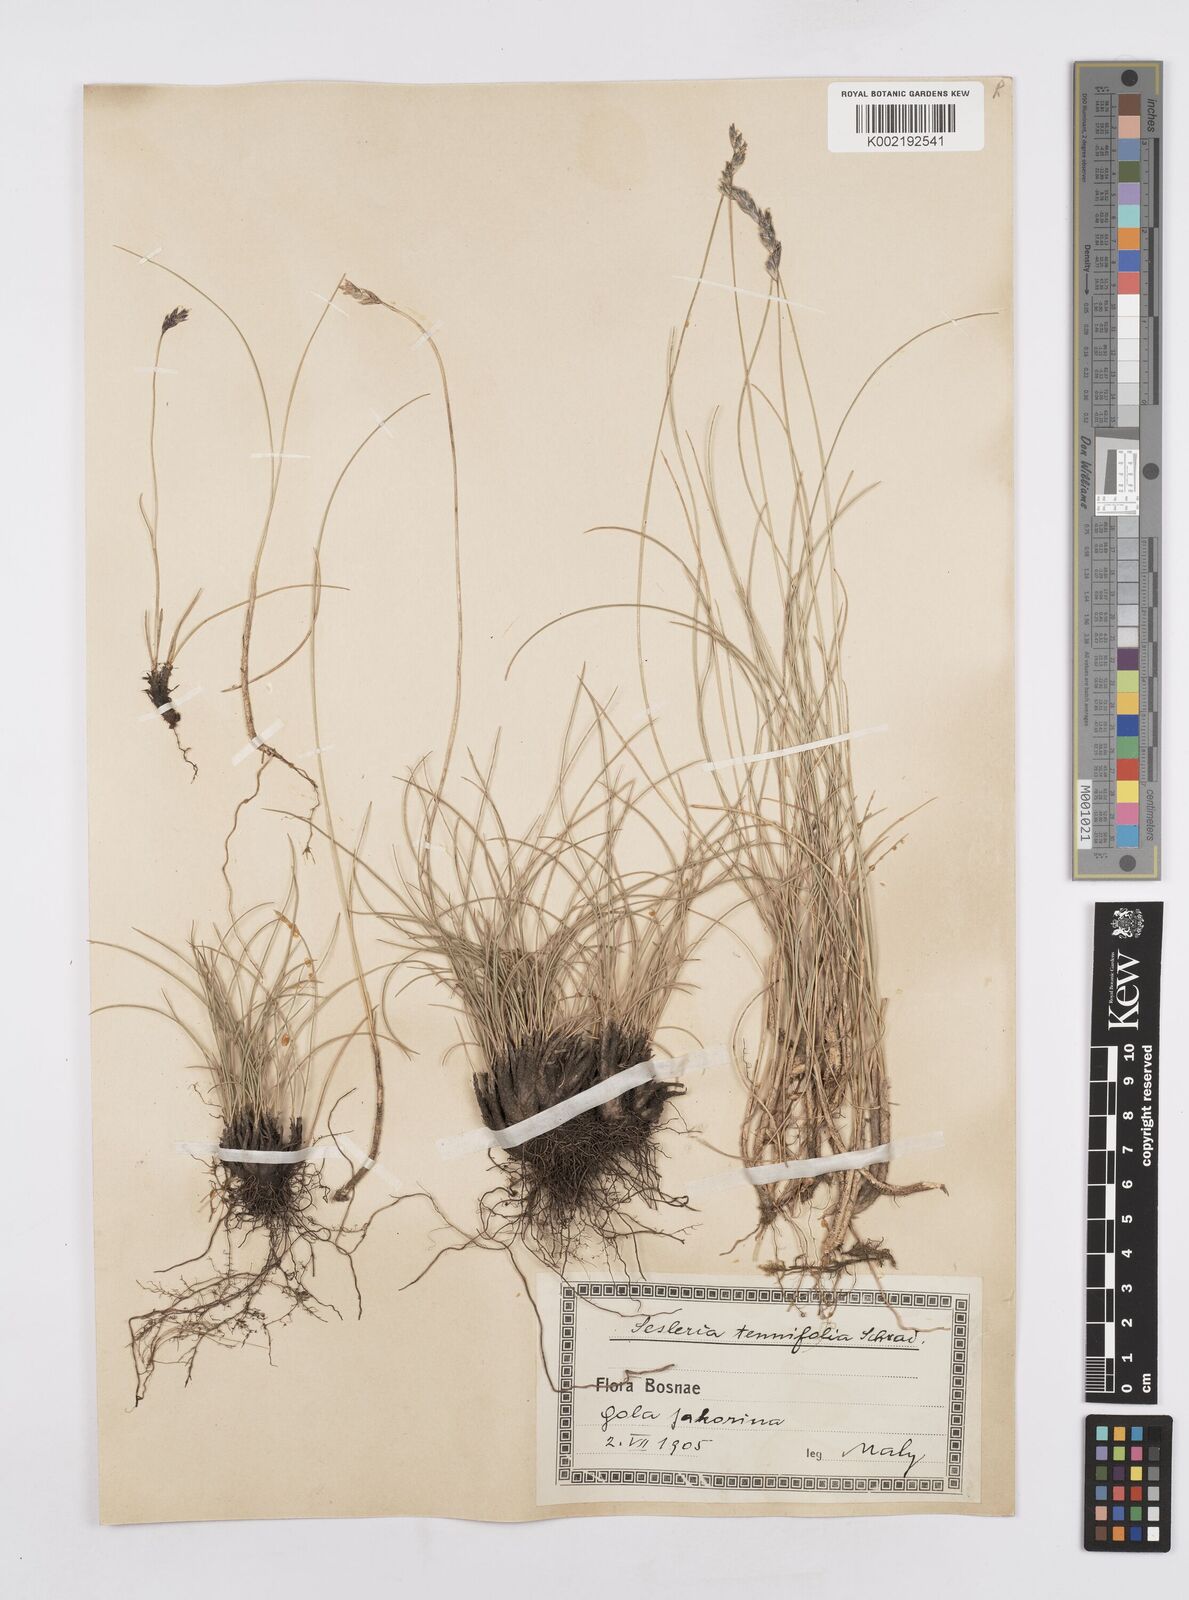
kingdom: Plantae
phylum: Tracheophyta
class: Liliopsida
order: Poales
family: Poaceae
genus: Sesleria
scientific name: Sesleria juncifolia
